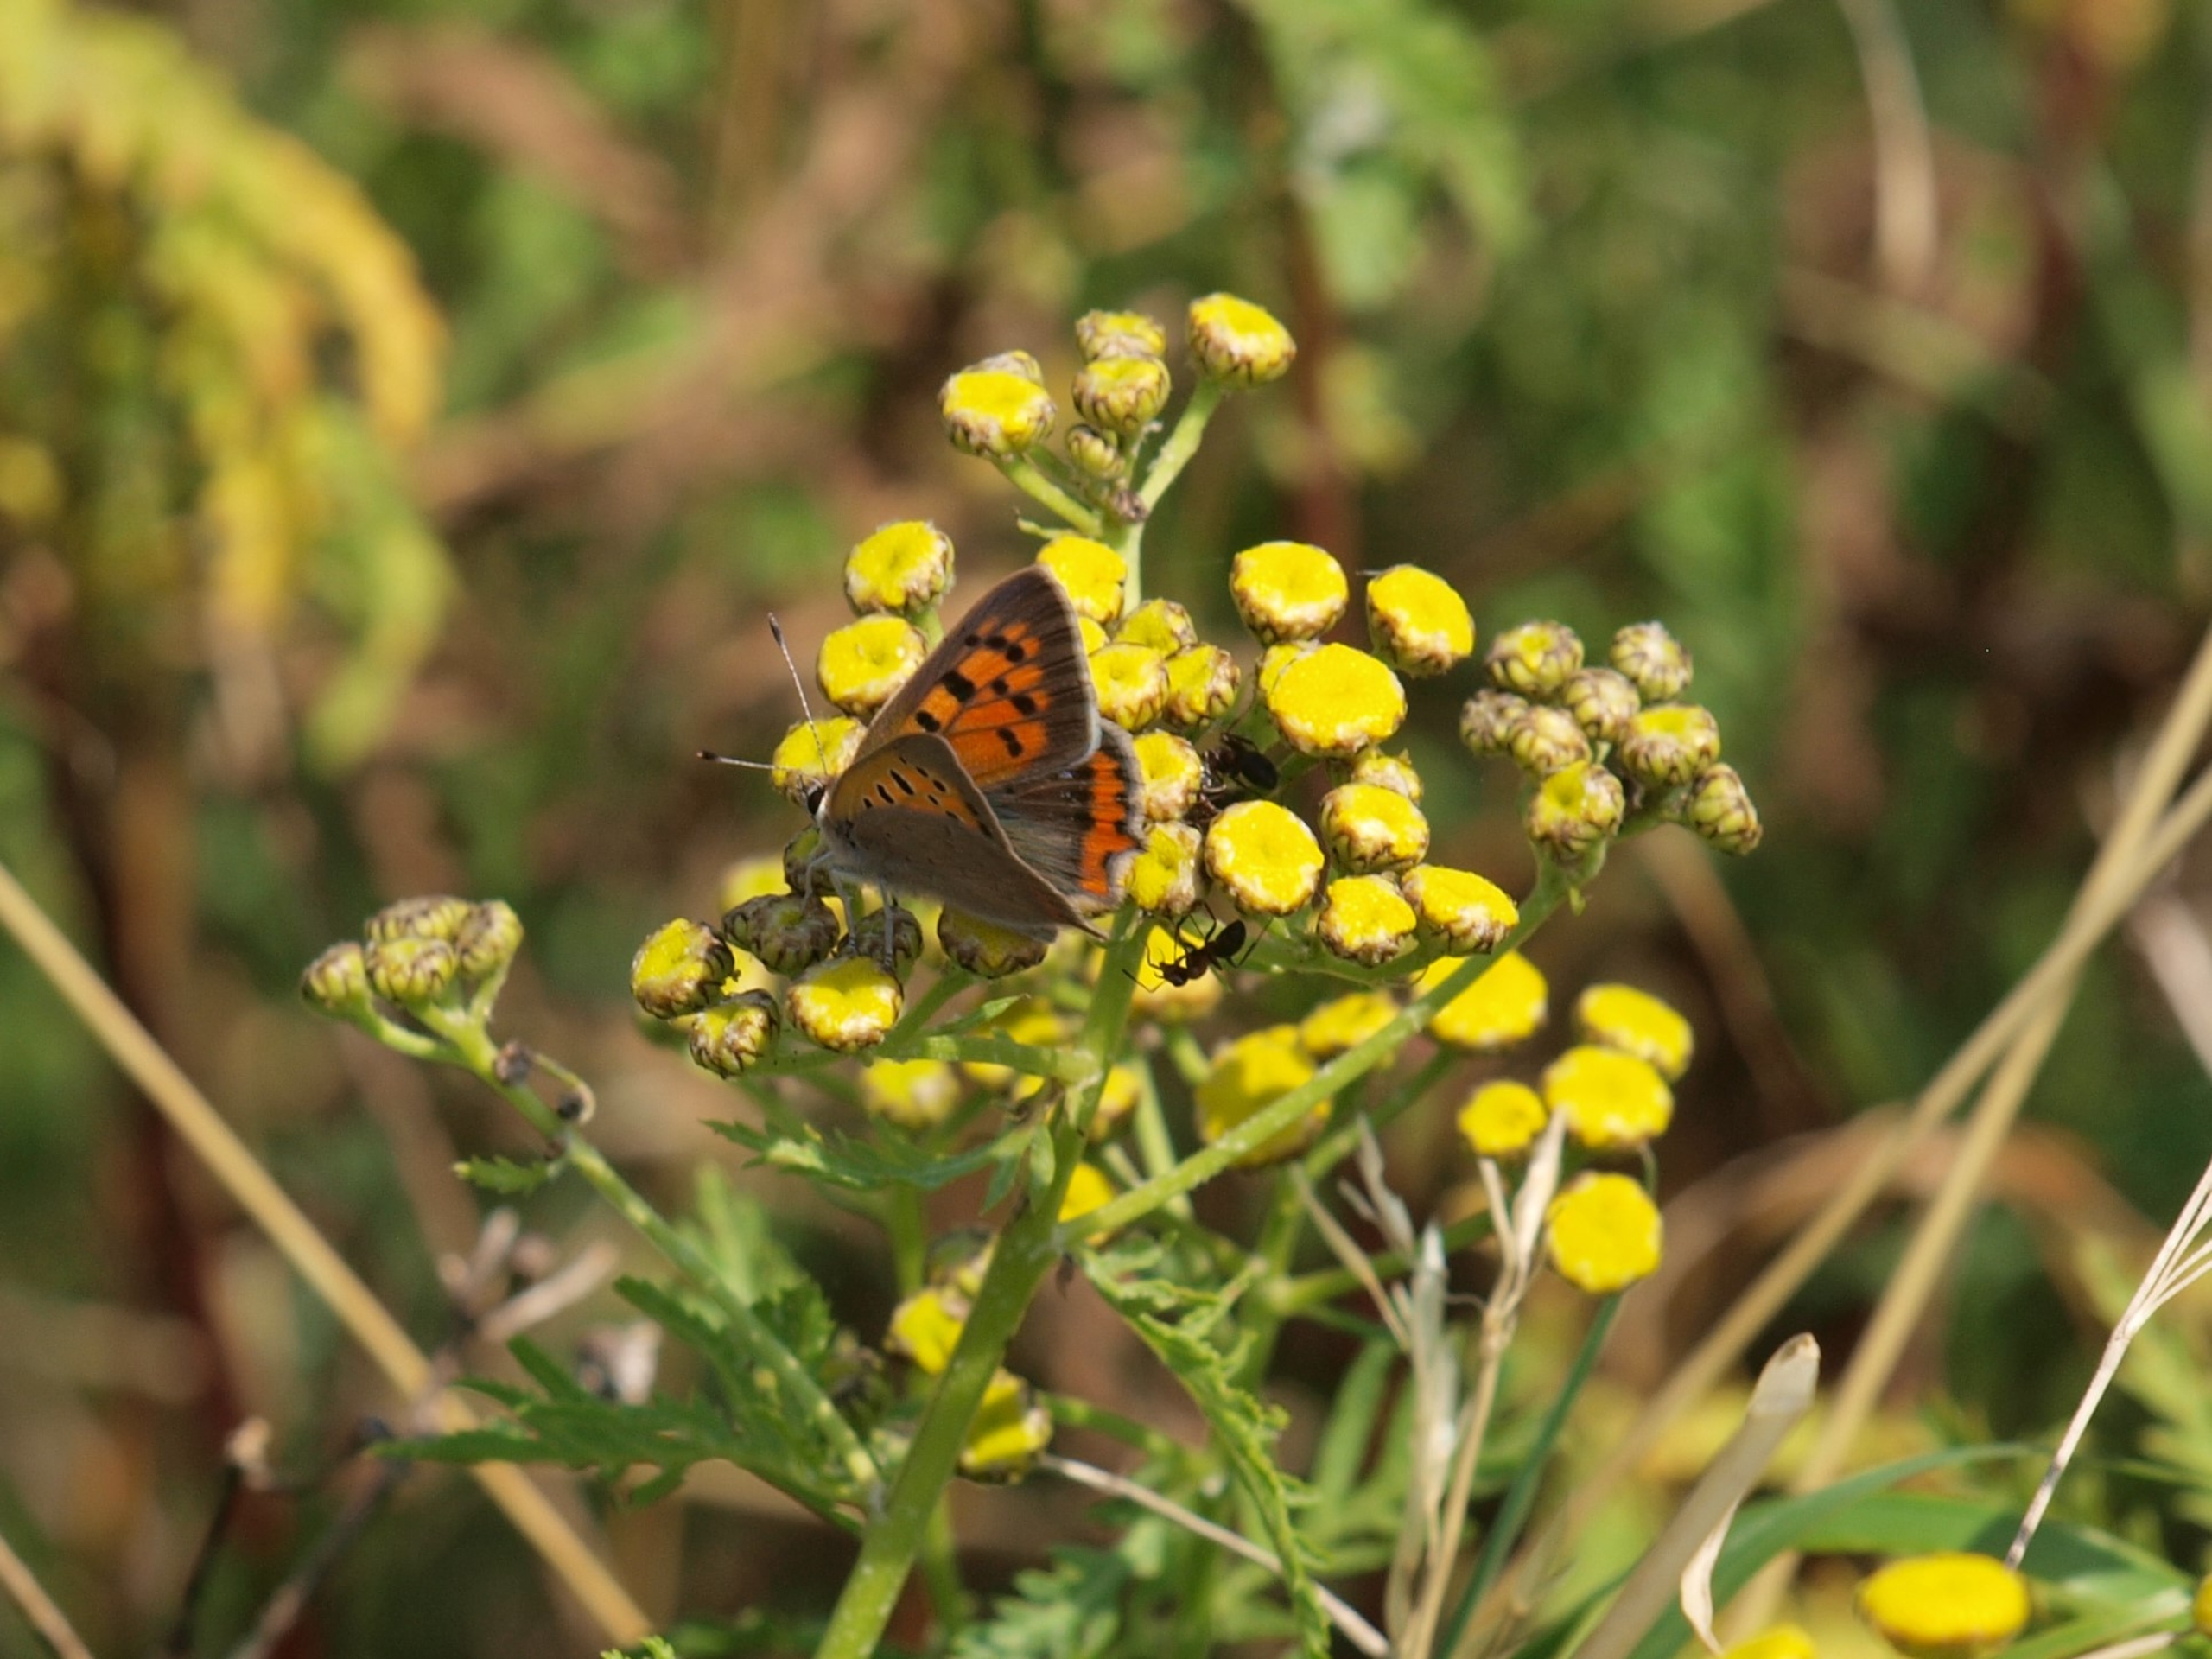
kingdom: Animalia
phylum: Arthropoda
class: Insecta
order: Lepidoptera
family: Lycaenidae
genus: Lycaena
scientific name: Lycaena phlaeas
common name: Lille ildfugl
